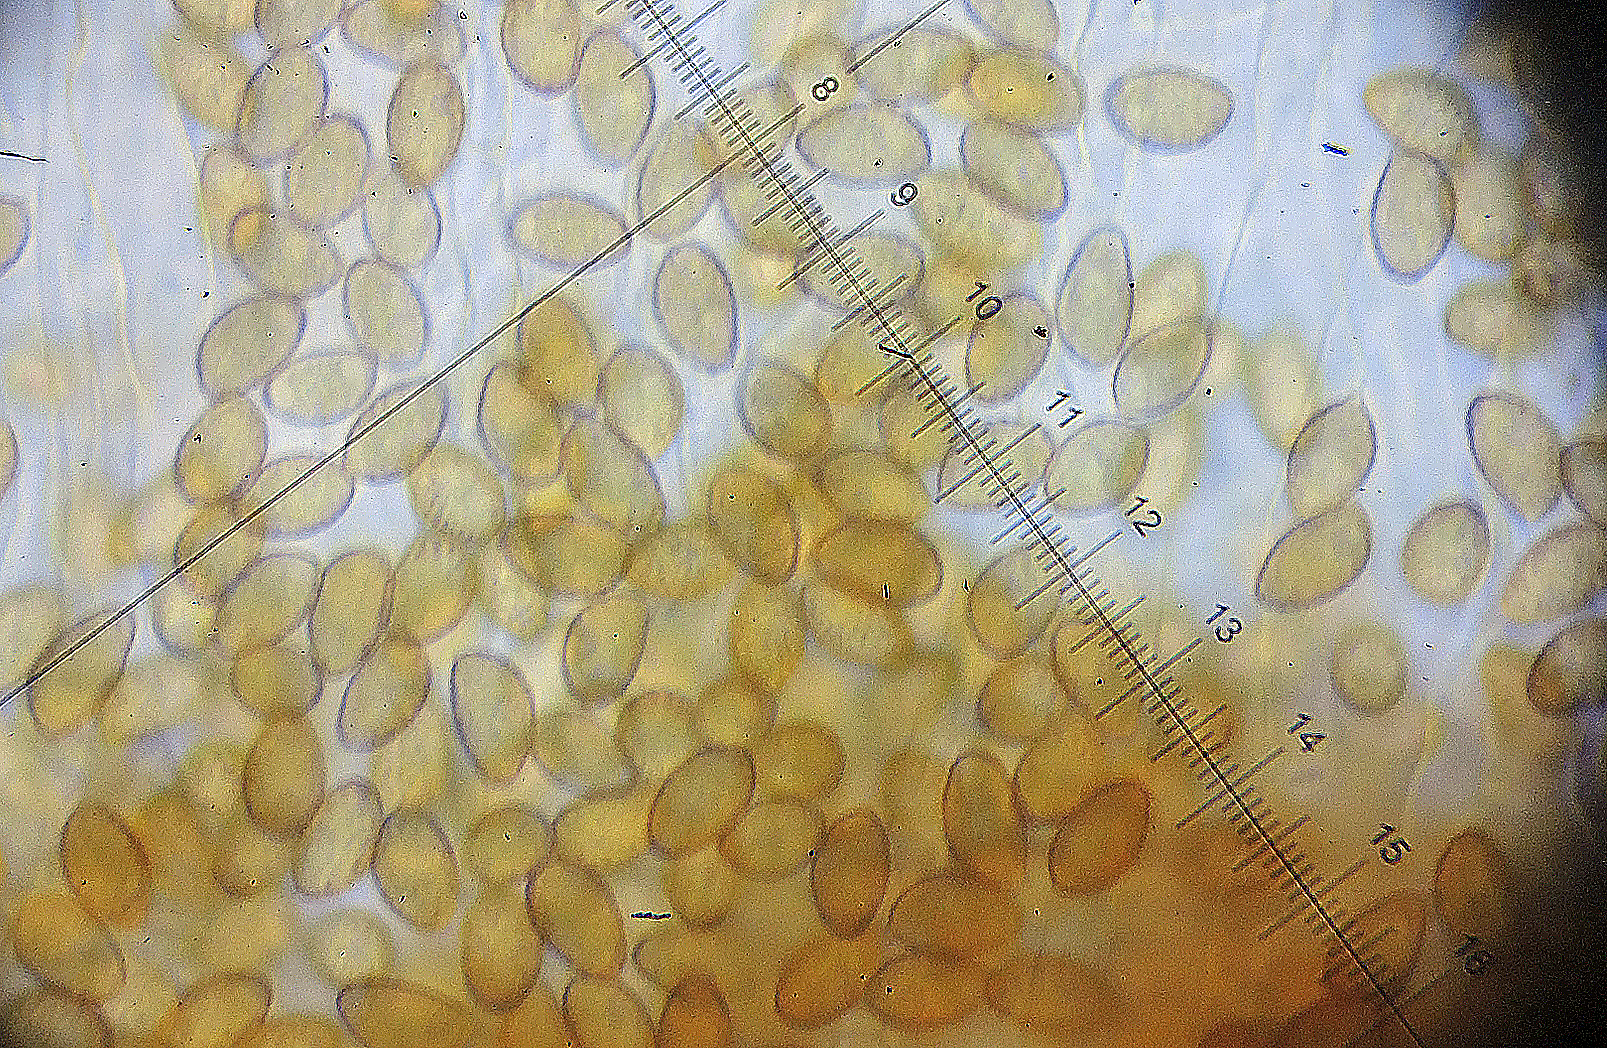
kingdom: Fungi
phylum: Basidiomycota
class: Agaricomycetes
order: Agaricales
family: Cortinariaceae
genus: Cortinarius
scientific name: Cortinarius
